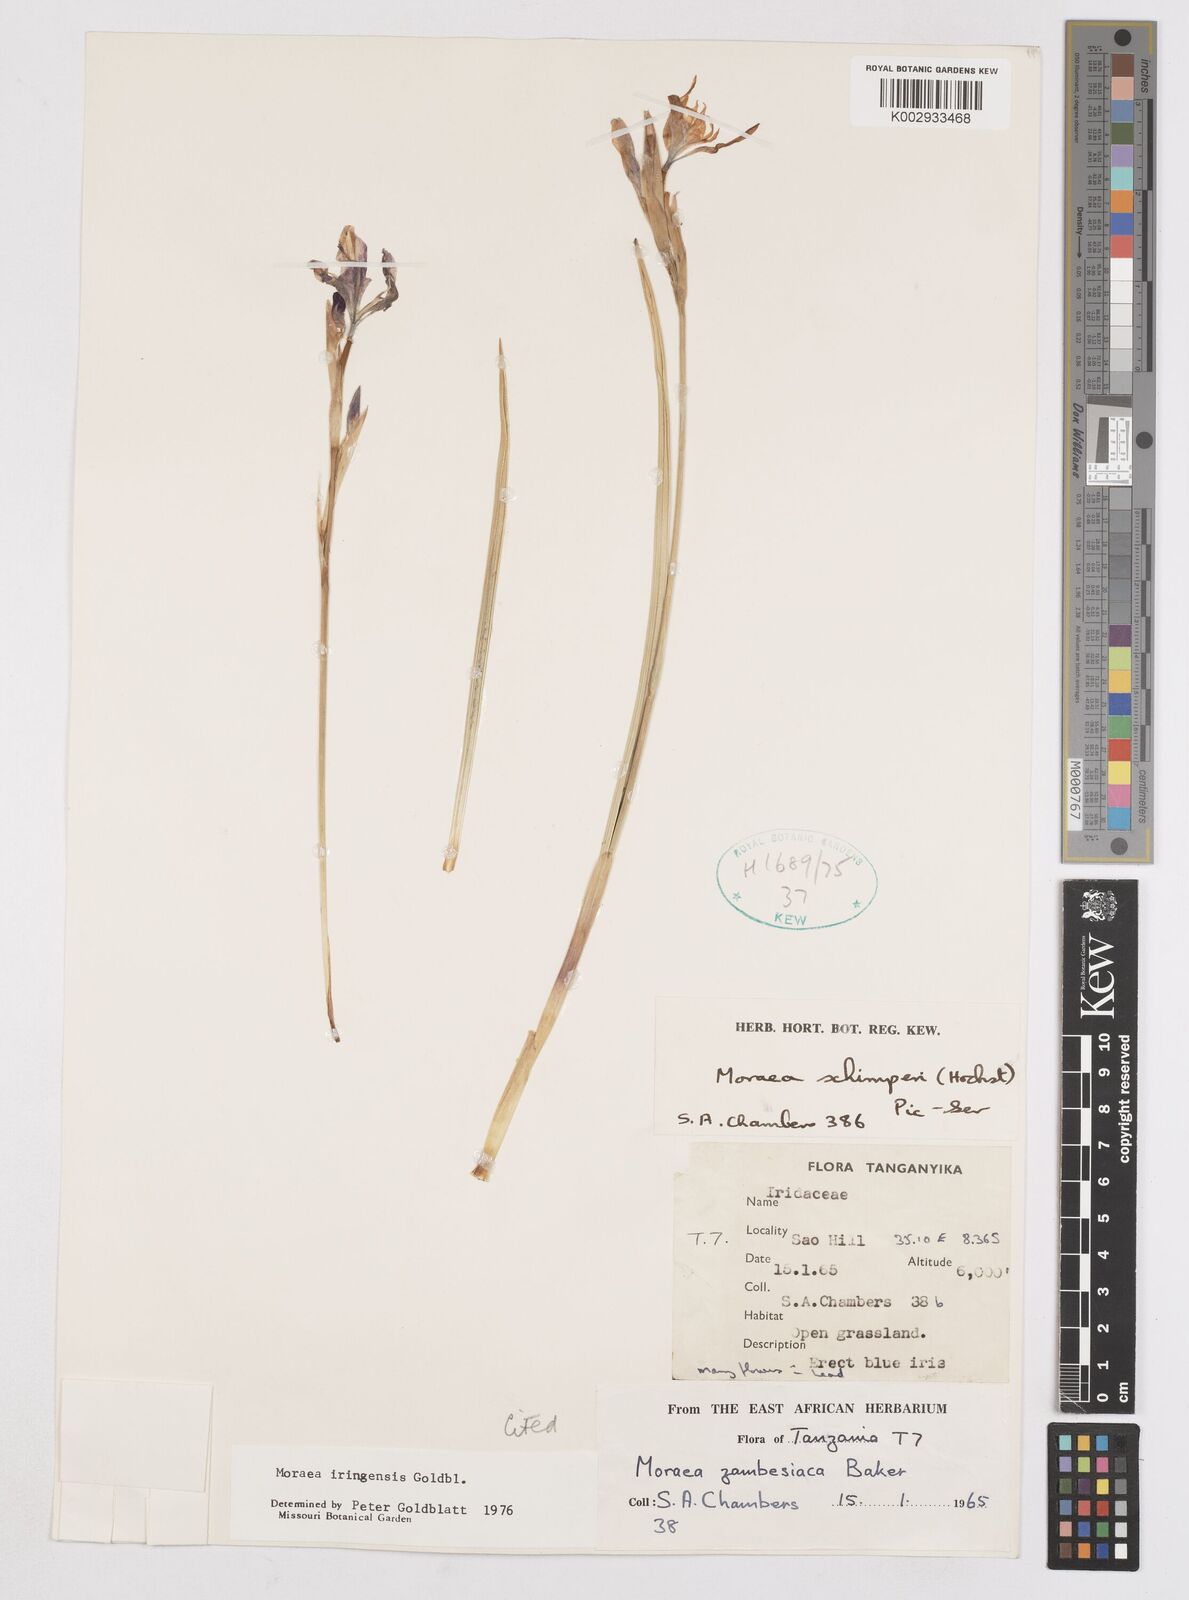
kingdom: Plantae
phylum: Tracheophyta
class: Liliopsida
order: Asparagales
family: Iridaceae
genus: Moraea
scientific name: Moraea iringensis
